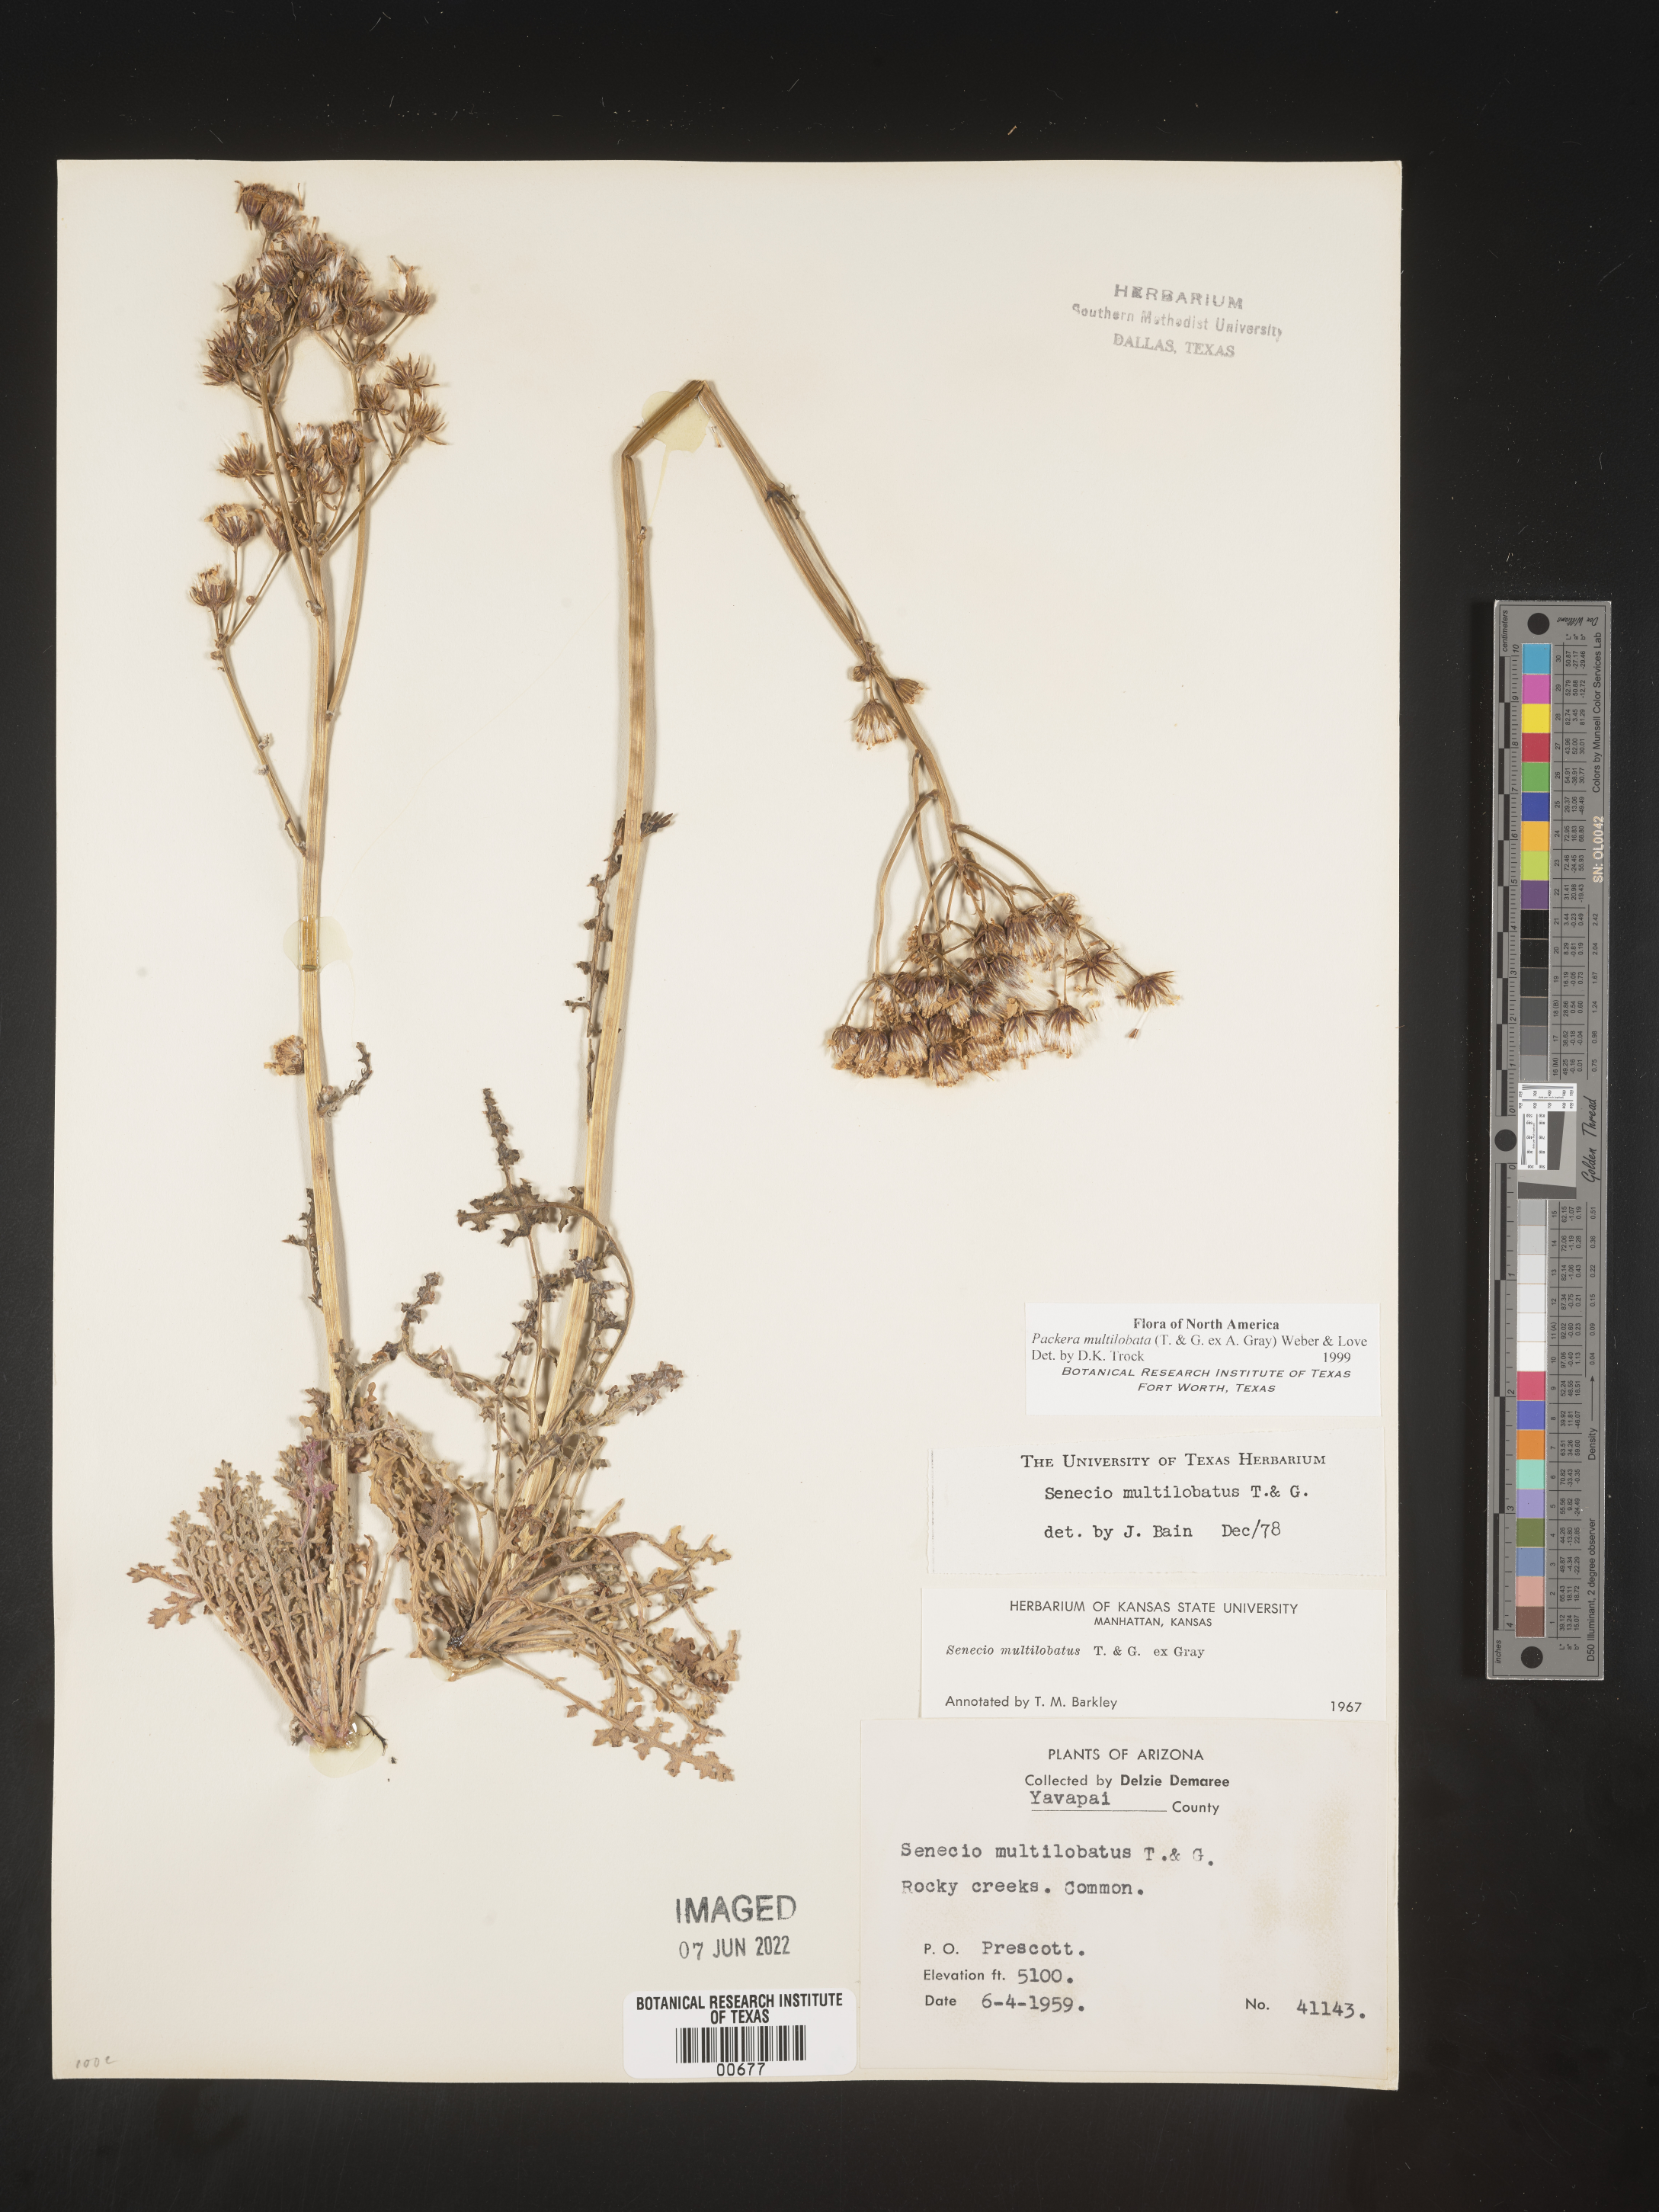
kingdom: Plantae
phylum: Tracheophyta
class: Magnoliopsida
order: Asterales
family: Asteraceae
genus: Packera
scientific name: Packera multilobata
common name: Lobe-leaf groundsel
